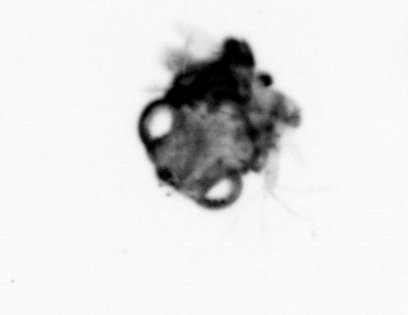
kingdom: Animalia
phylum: Arthropoda
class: Malacostraca
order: Decapoda
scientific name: Decapoda
